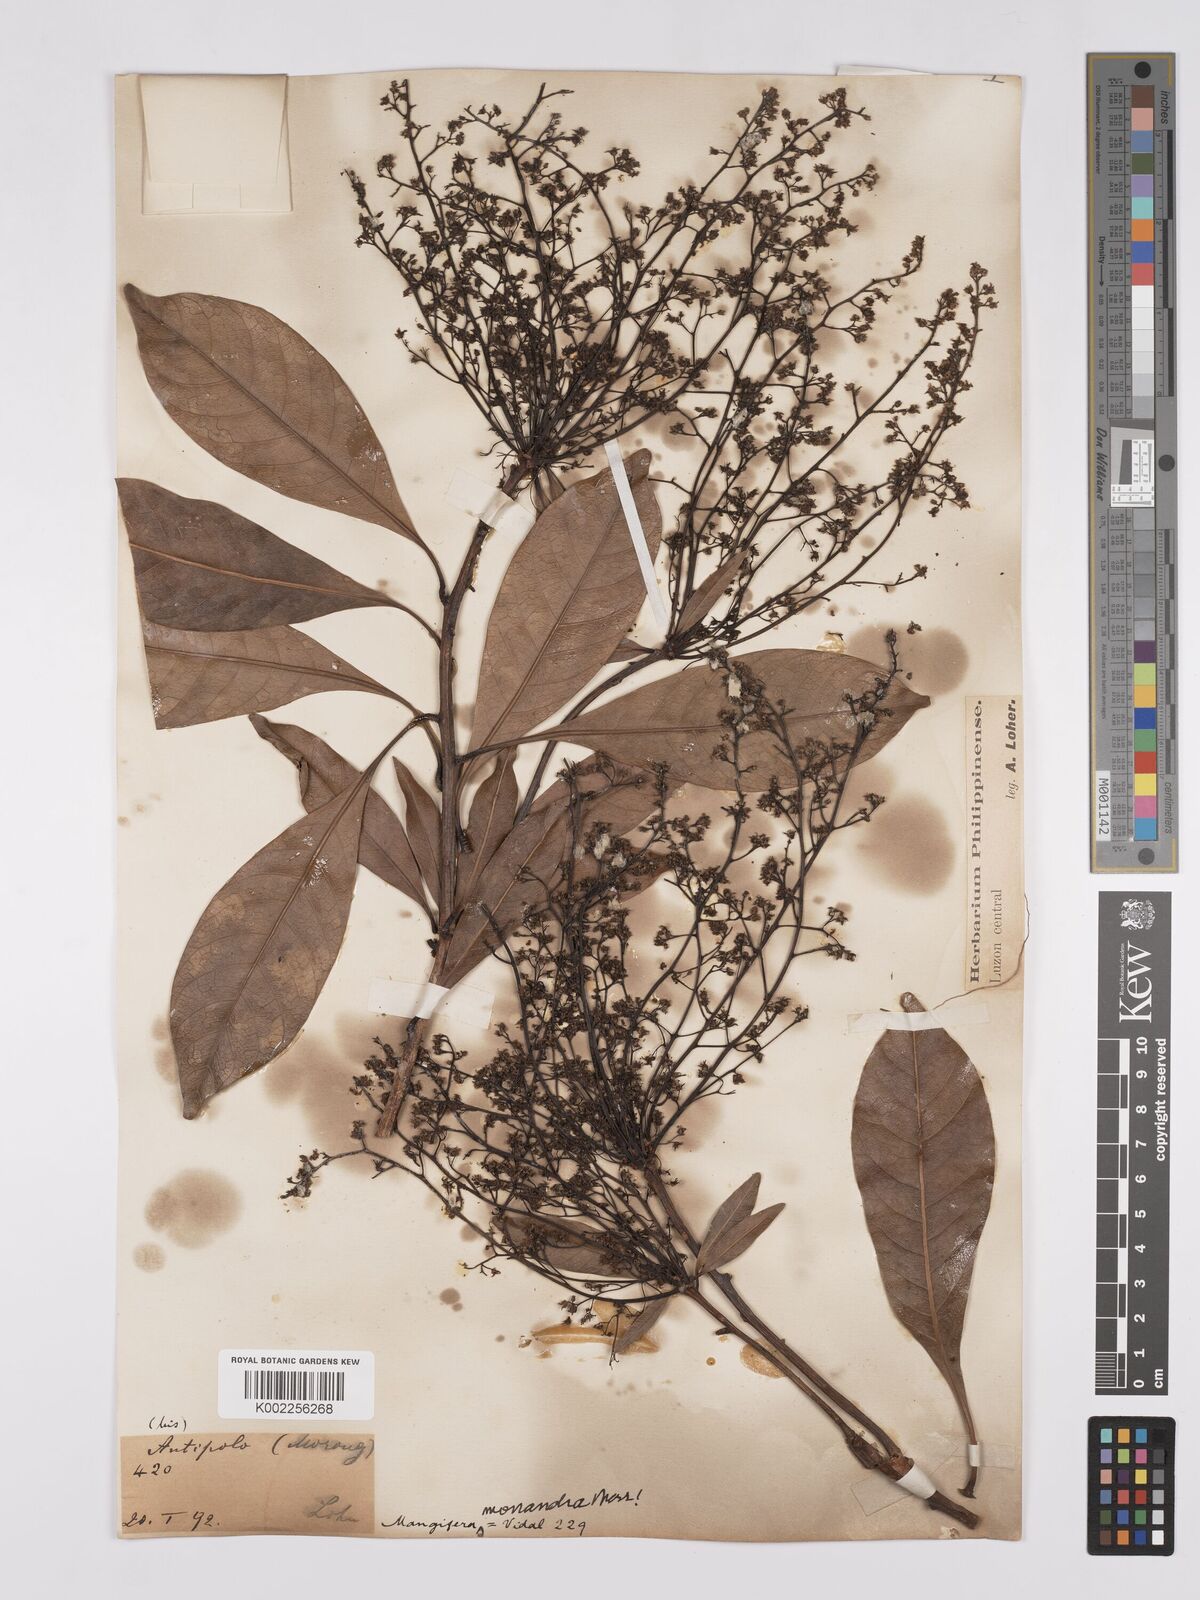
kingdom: Plantae
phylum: Tracheophyta
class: Magnoliopsida
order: Sapindales
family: Anacardiaceae
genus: Mangifera
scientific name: Mangifera monandra
